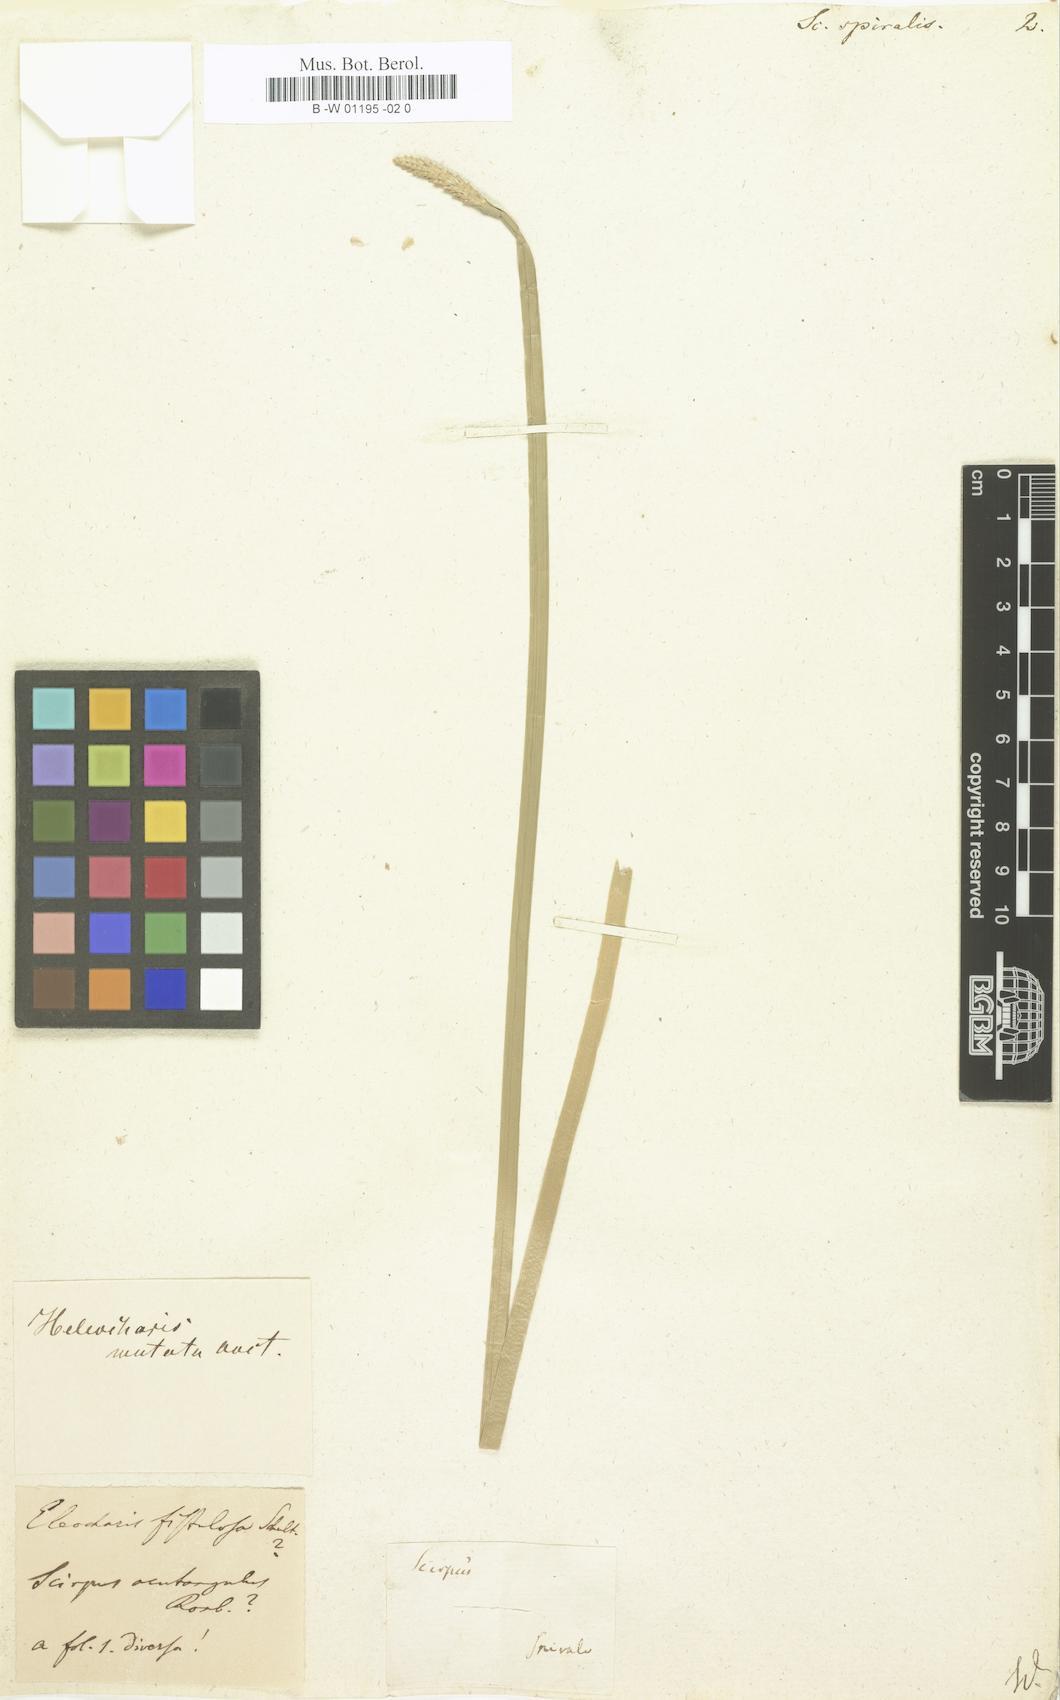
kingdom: Plantae
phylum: Tracheophyta
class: Liliopsida
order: Poales
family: Cyperaceae
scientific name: Cyperaceae
